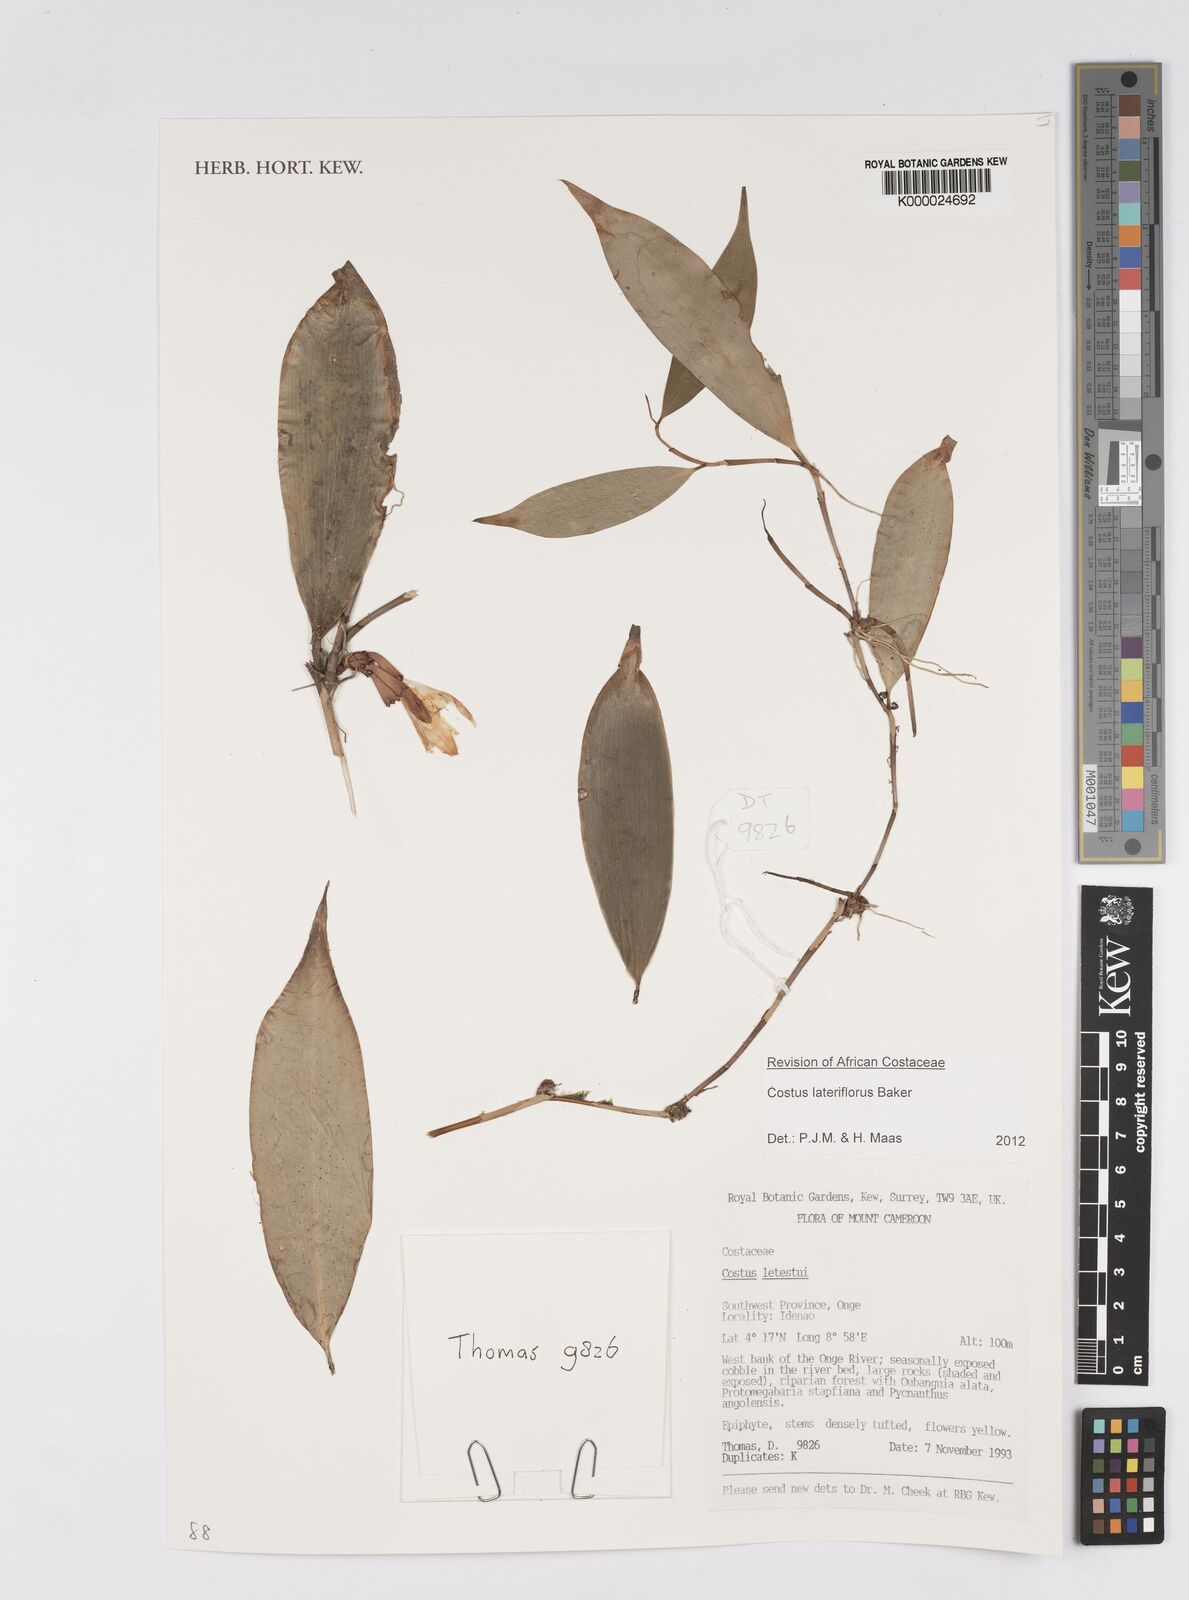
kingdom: Plantae
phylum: Tracheophyta
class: Liliopsida
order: Zingiberales
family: Costaceae
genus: Costus
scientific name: Costus lateriflorus
